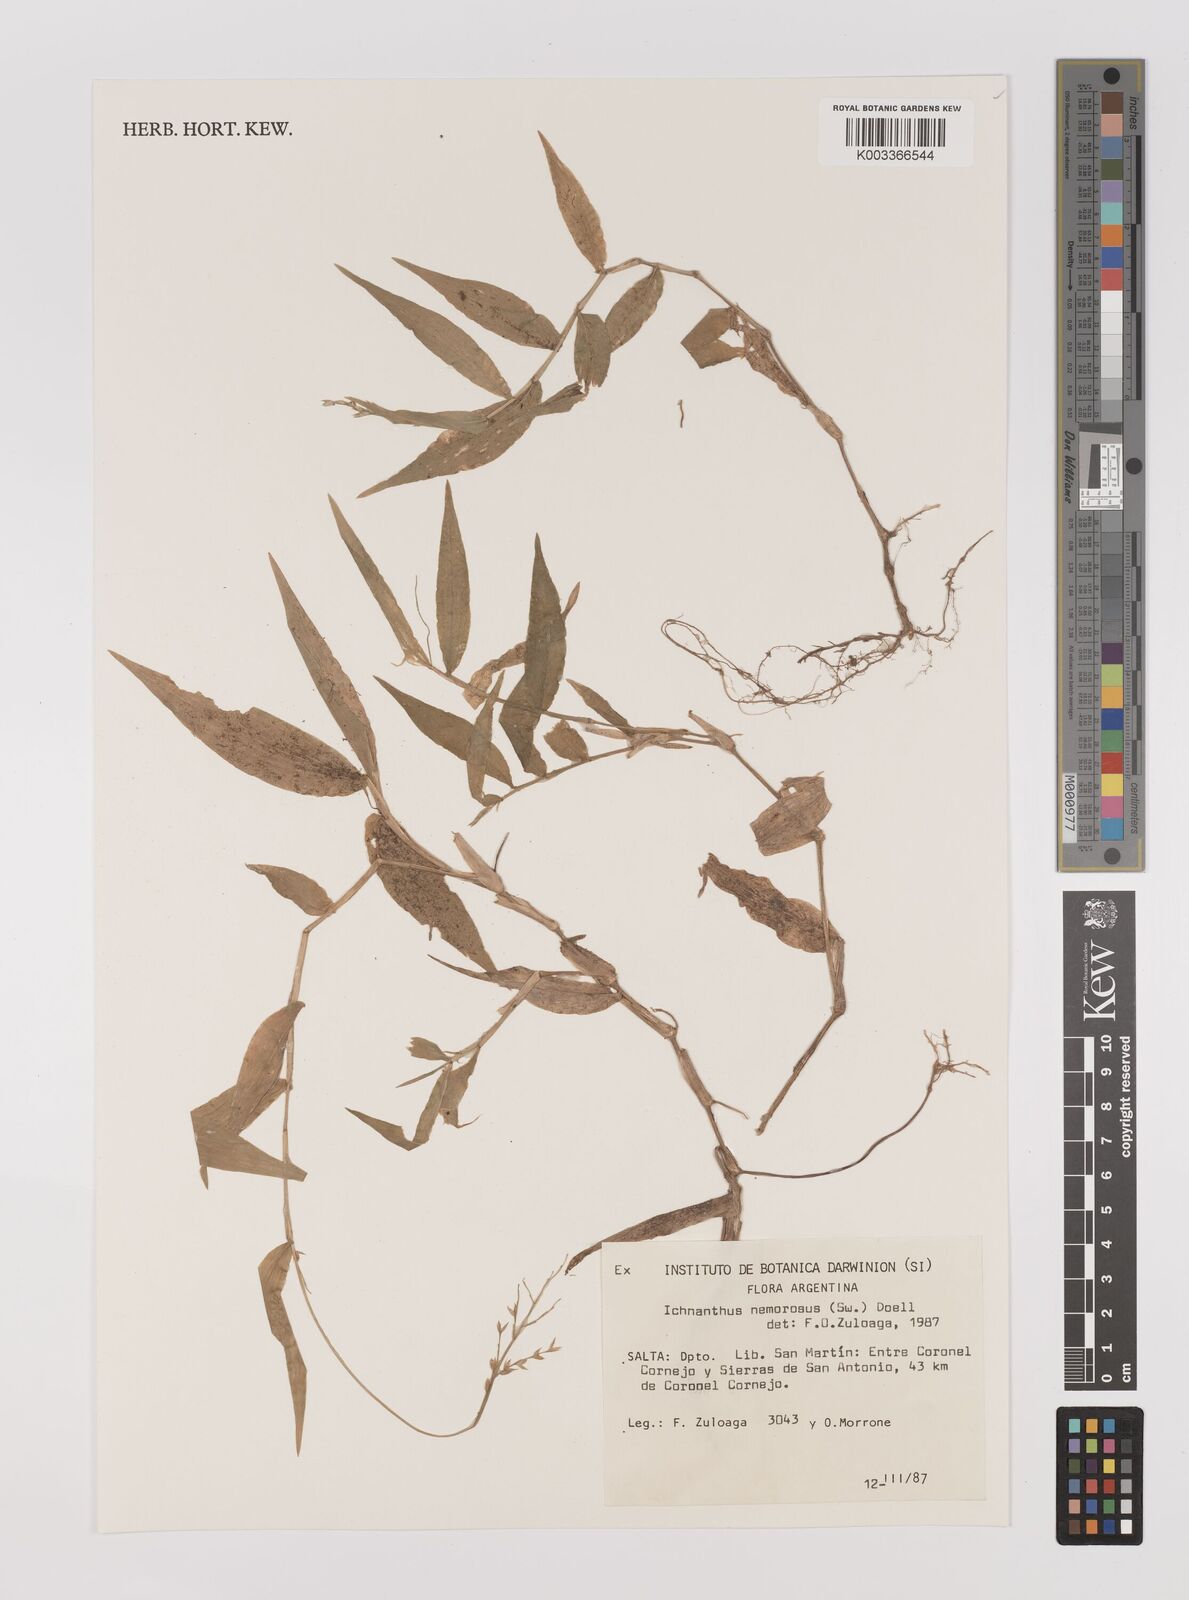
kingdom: Plantae
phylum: Tracheophyta
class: Liliopsida
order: Poales
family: Poaceae
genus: Ichnanthus
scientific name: Ichnanthus nemorosus
